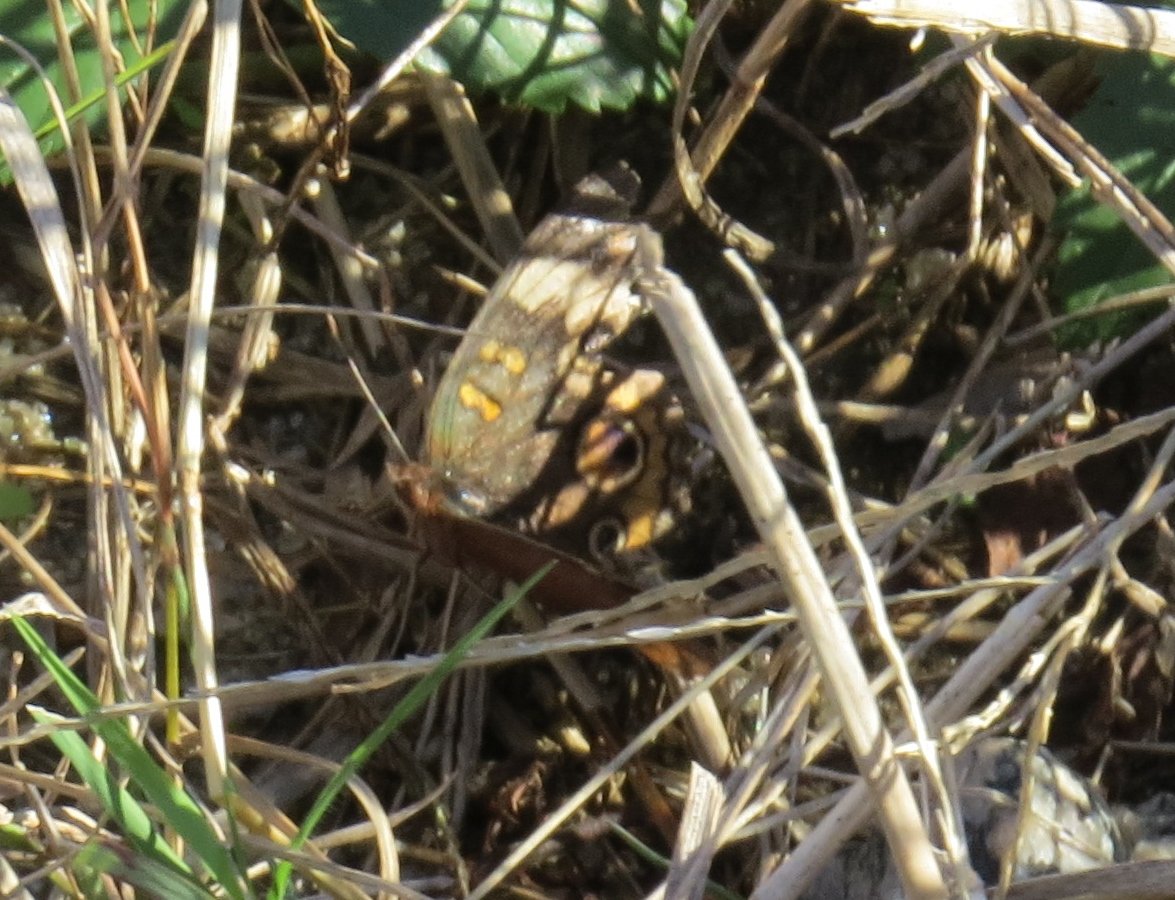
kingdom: Animalia
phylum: Arthropoda
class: Insecta
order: Lepidoptera
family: Nymphalidae
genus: Junonia
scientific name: Junonia coenia
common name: Common Buckeye
